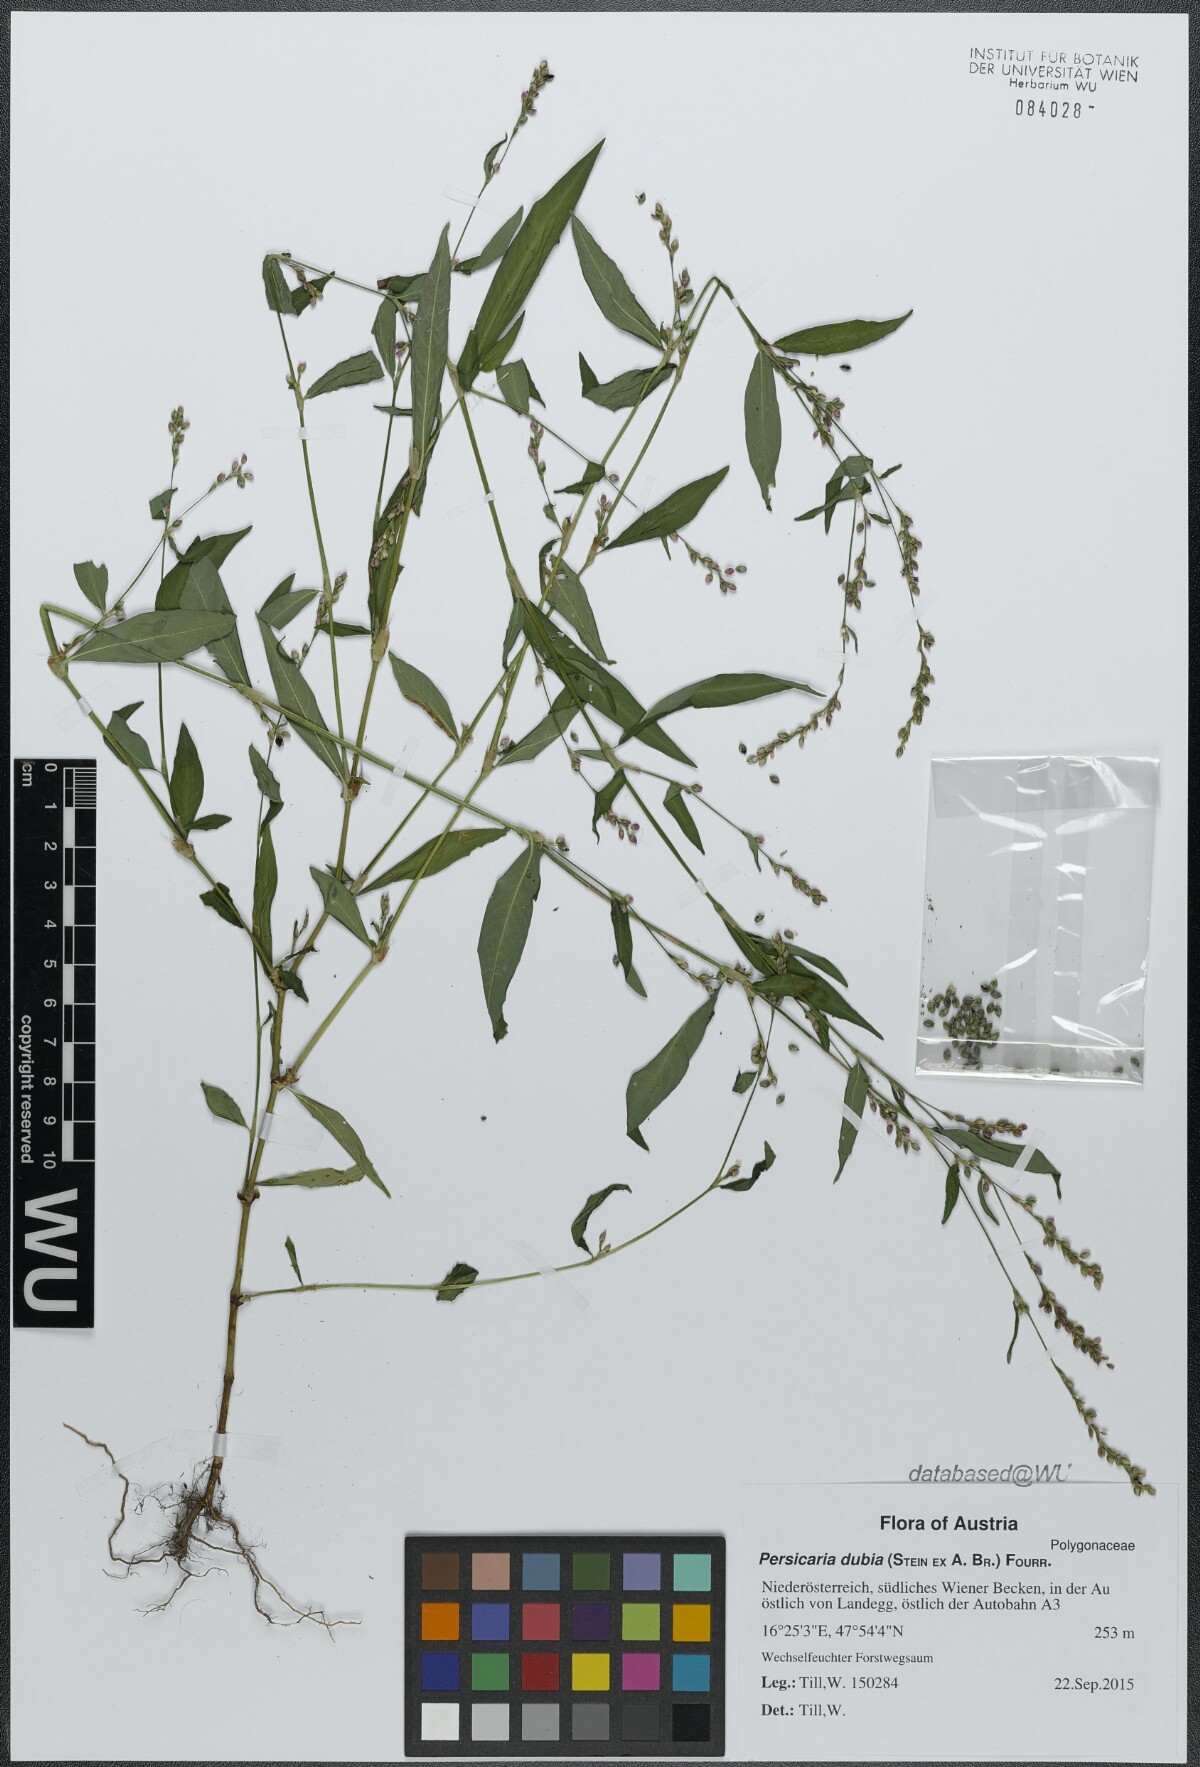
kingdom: Plantae
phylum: Tracheophyta
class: Magnoliopsida
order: Caryophyllales
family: Polygonaceae
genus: Persicaria
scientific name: Persicaria mitis
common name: Tasteless water-pepper
